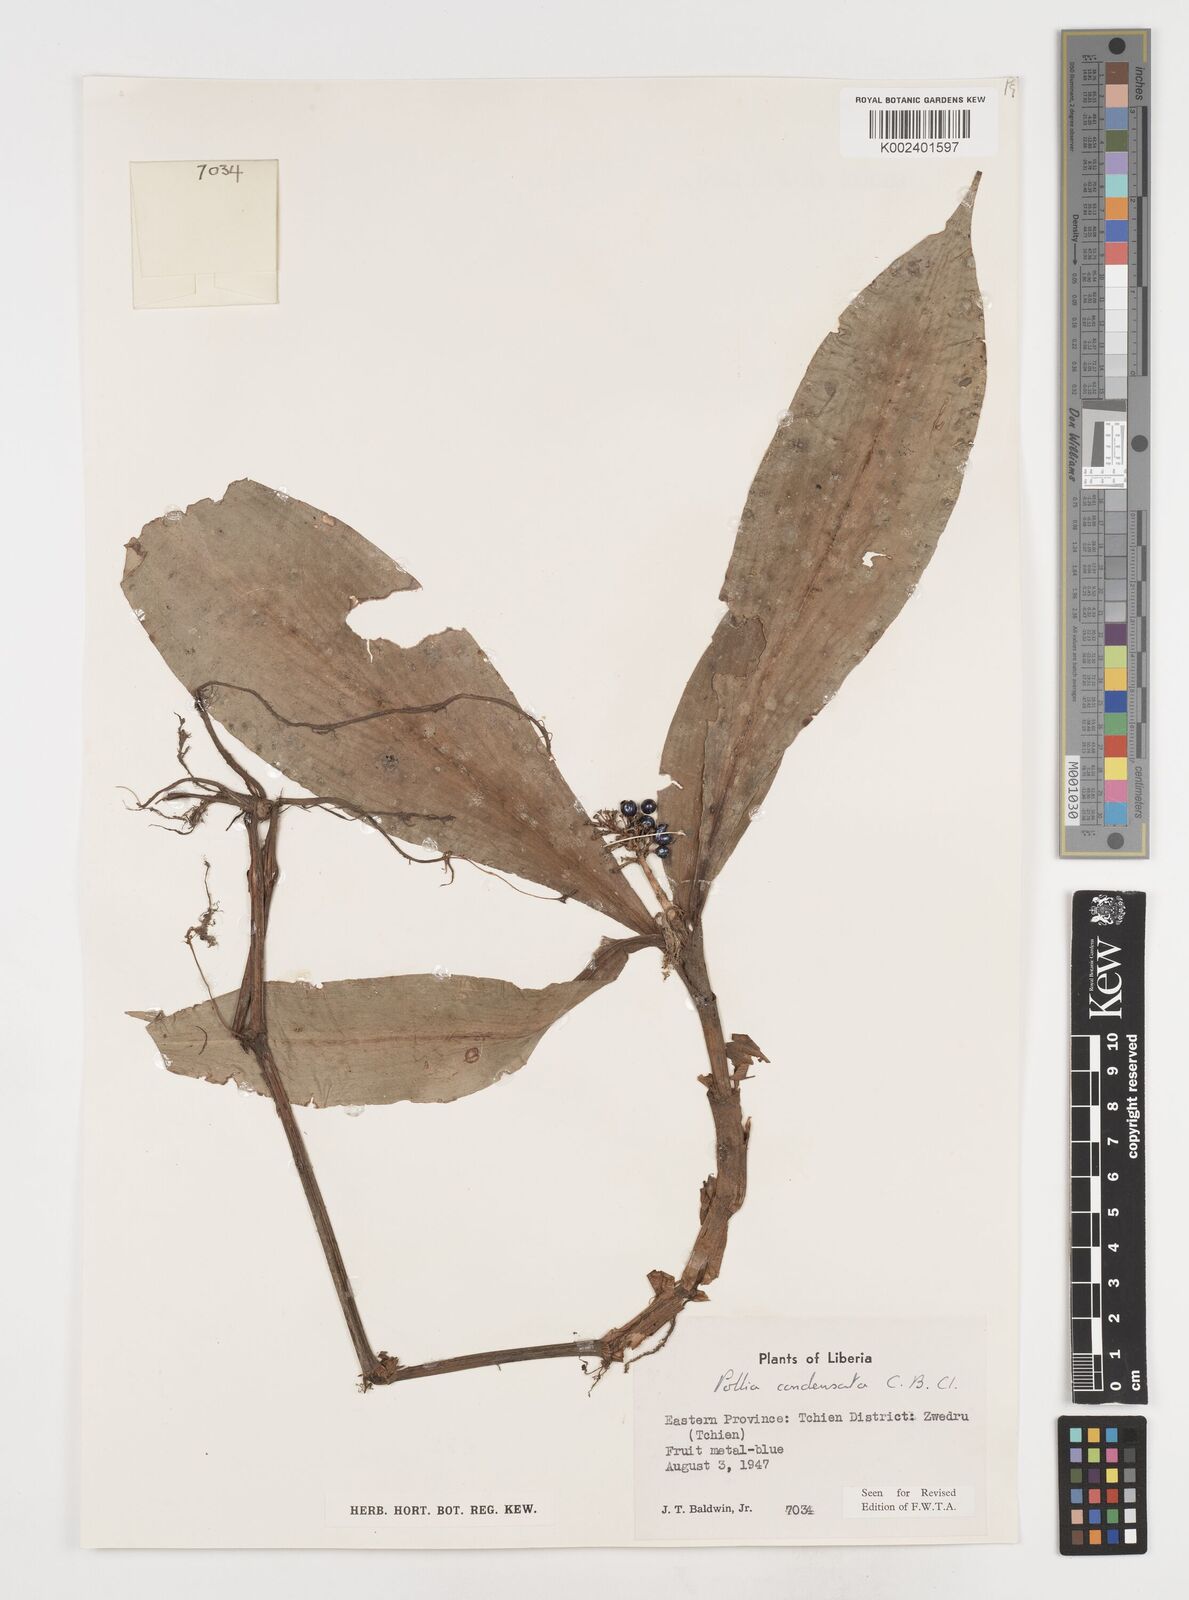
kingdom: Plantae
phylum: Tracheophyta
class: Liliopsida
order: Commelinales
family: Commelinaceae
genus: Pollia
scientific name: Pollia condensata
